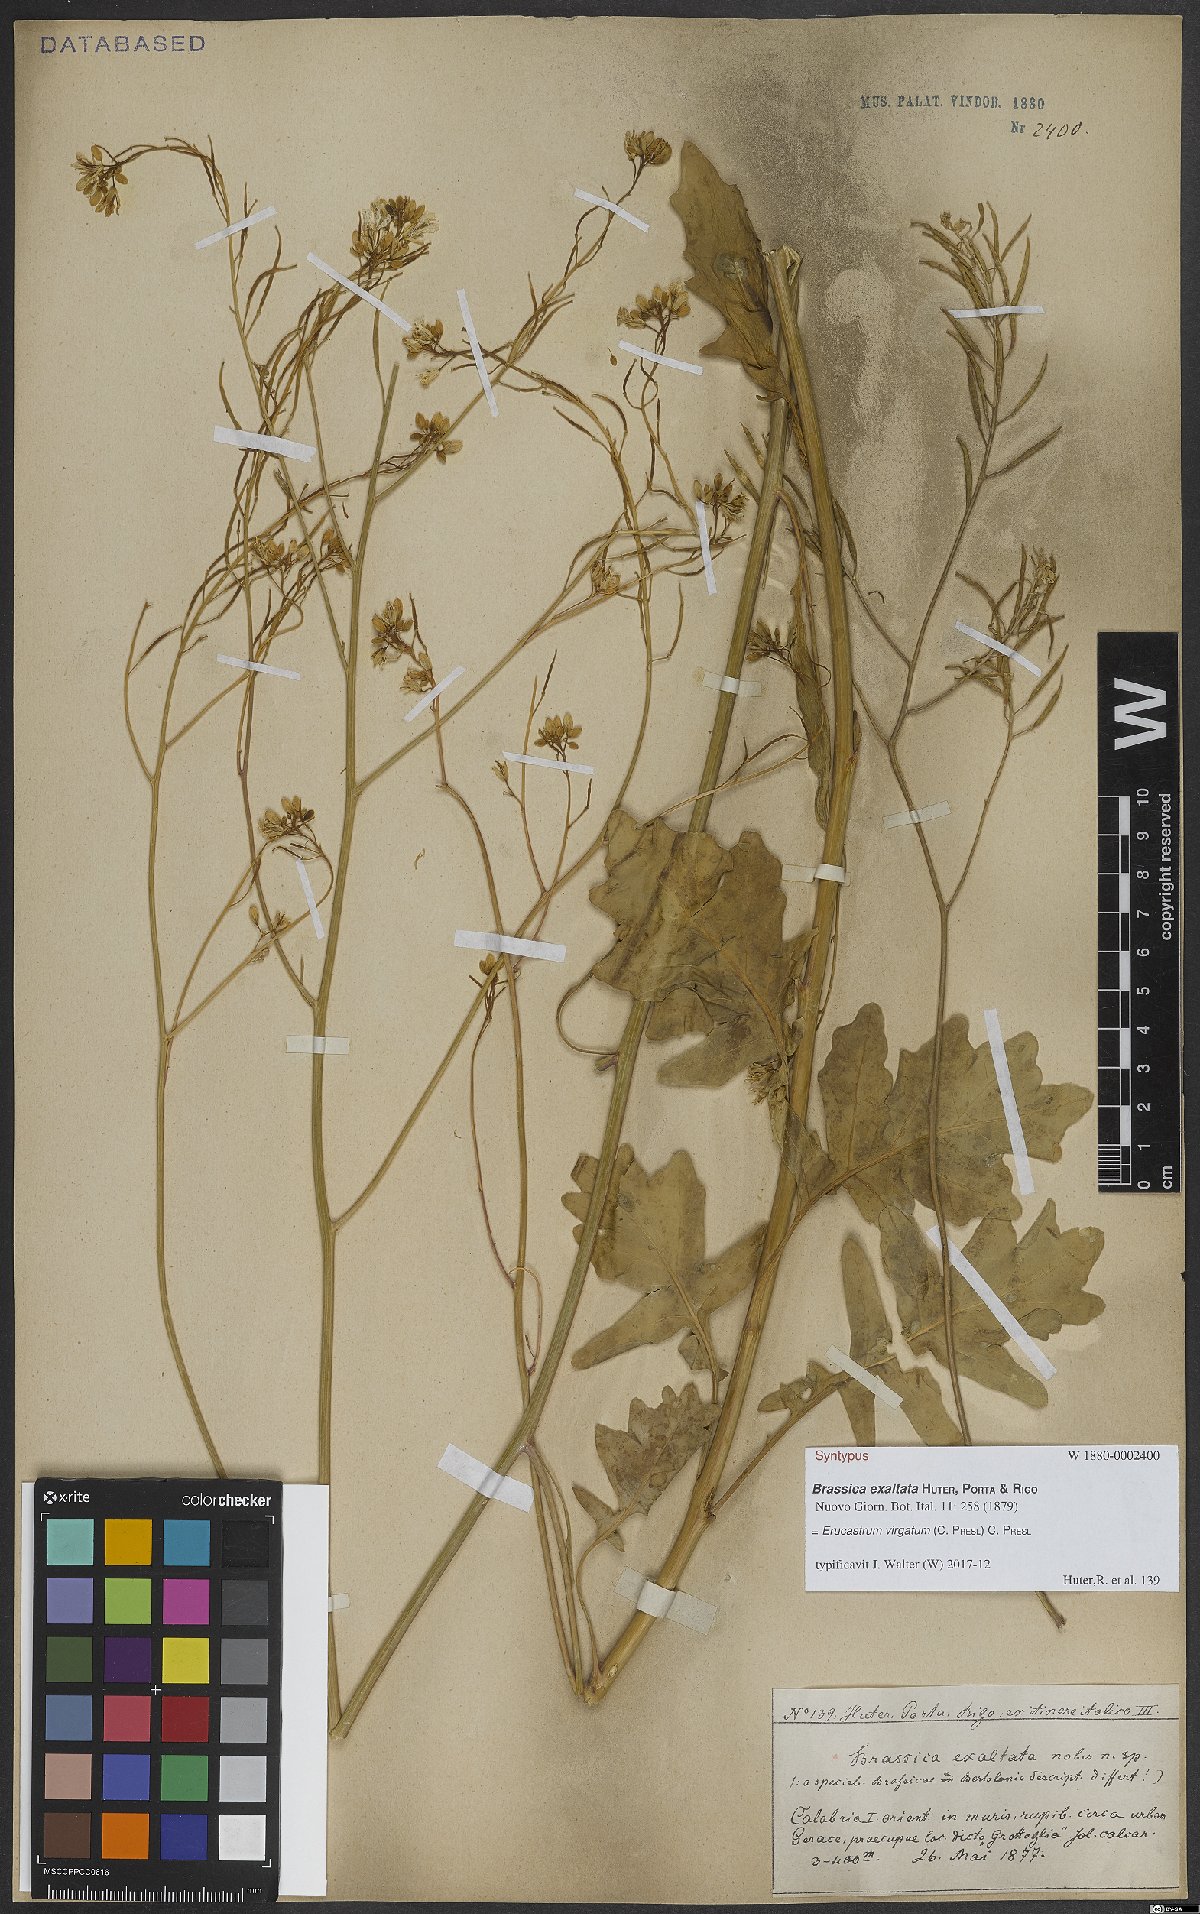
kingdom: Plantae
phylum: Tracheophyta
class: Magnoliopsida
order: Brassicales
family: Brassicaceae
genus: Erucastrum
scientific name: Erucastrum virgatum
